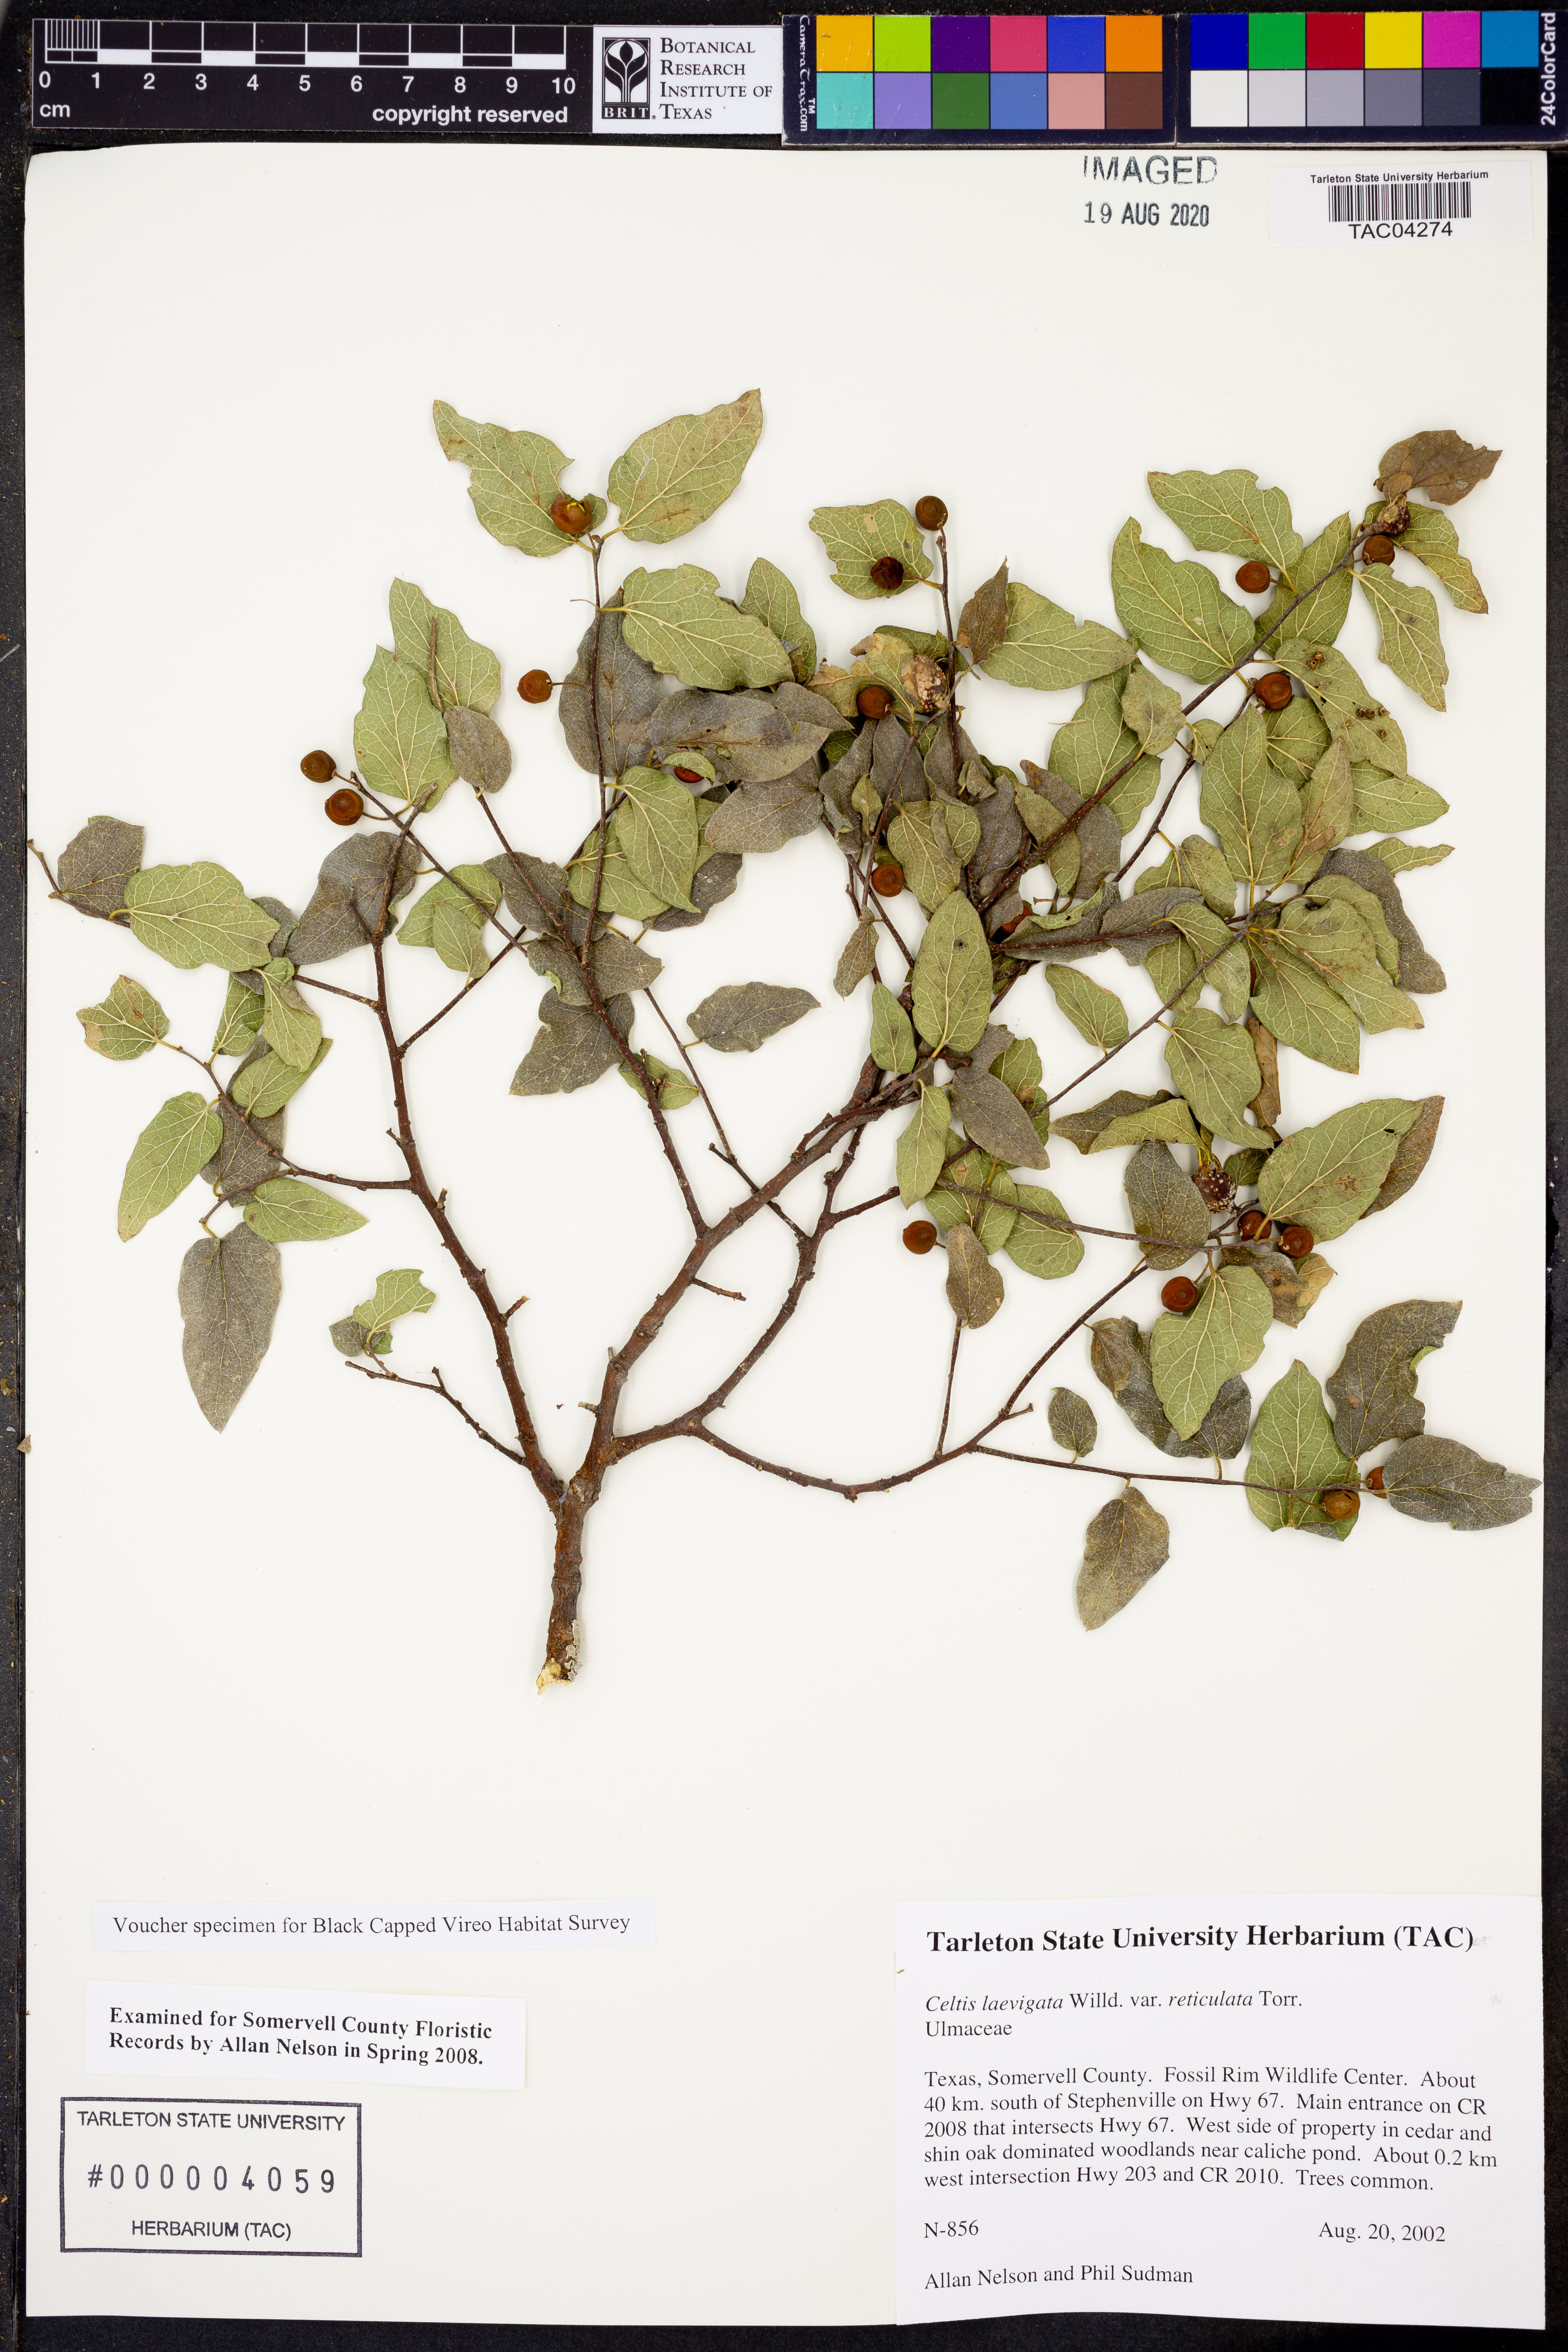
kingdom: Plantae
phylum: Tracheophyta
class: Magnoliopsida
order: Rosales
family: Cannabaceae
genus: Celtis
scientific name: Celtis reticulata
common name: Netleaf hackberry
